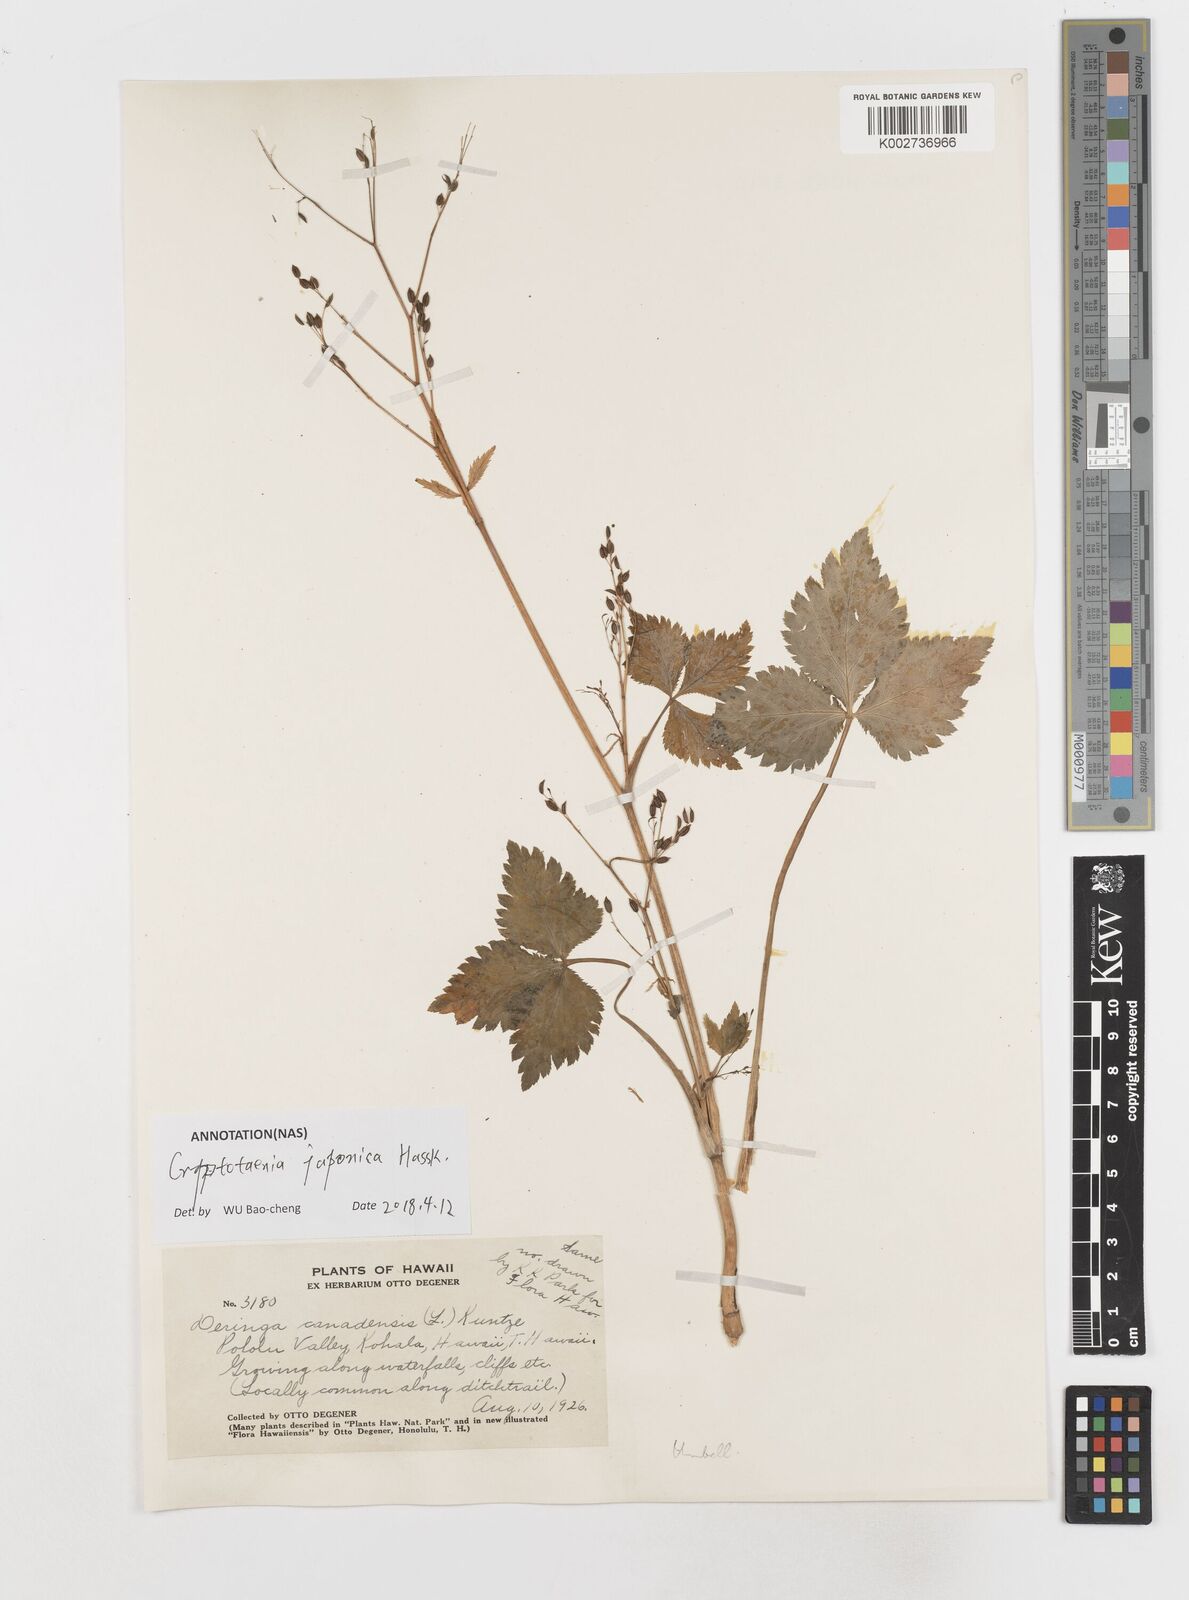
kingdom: Plantae
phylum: Tracheophyta
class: Magnoliopsida
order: Apiales
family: Apiaceae
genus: Cryptotaenia
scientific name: Cryptotaenia canadensis
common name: Honewort
